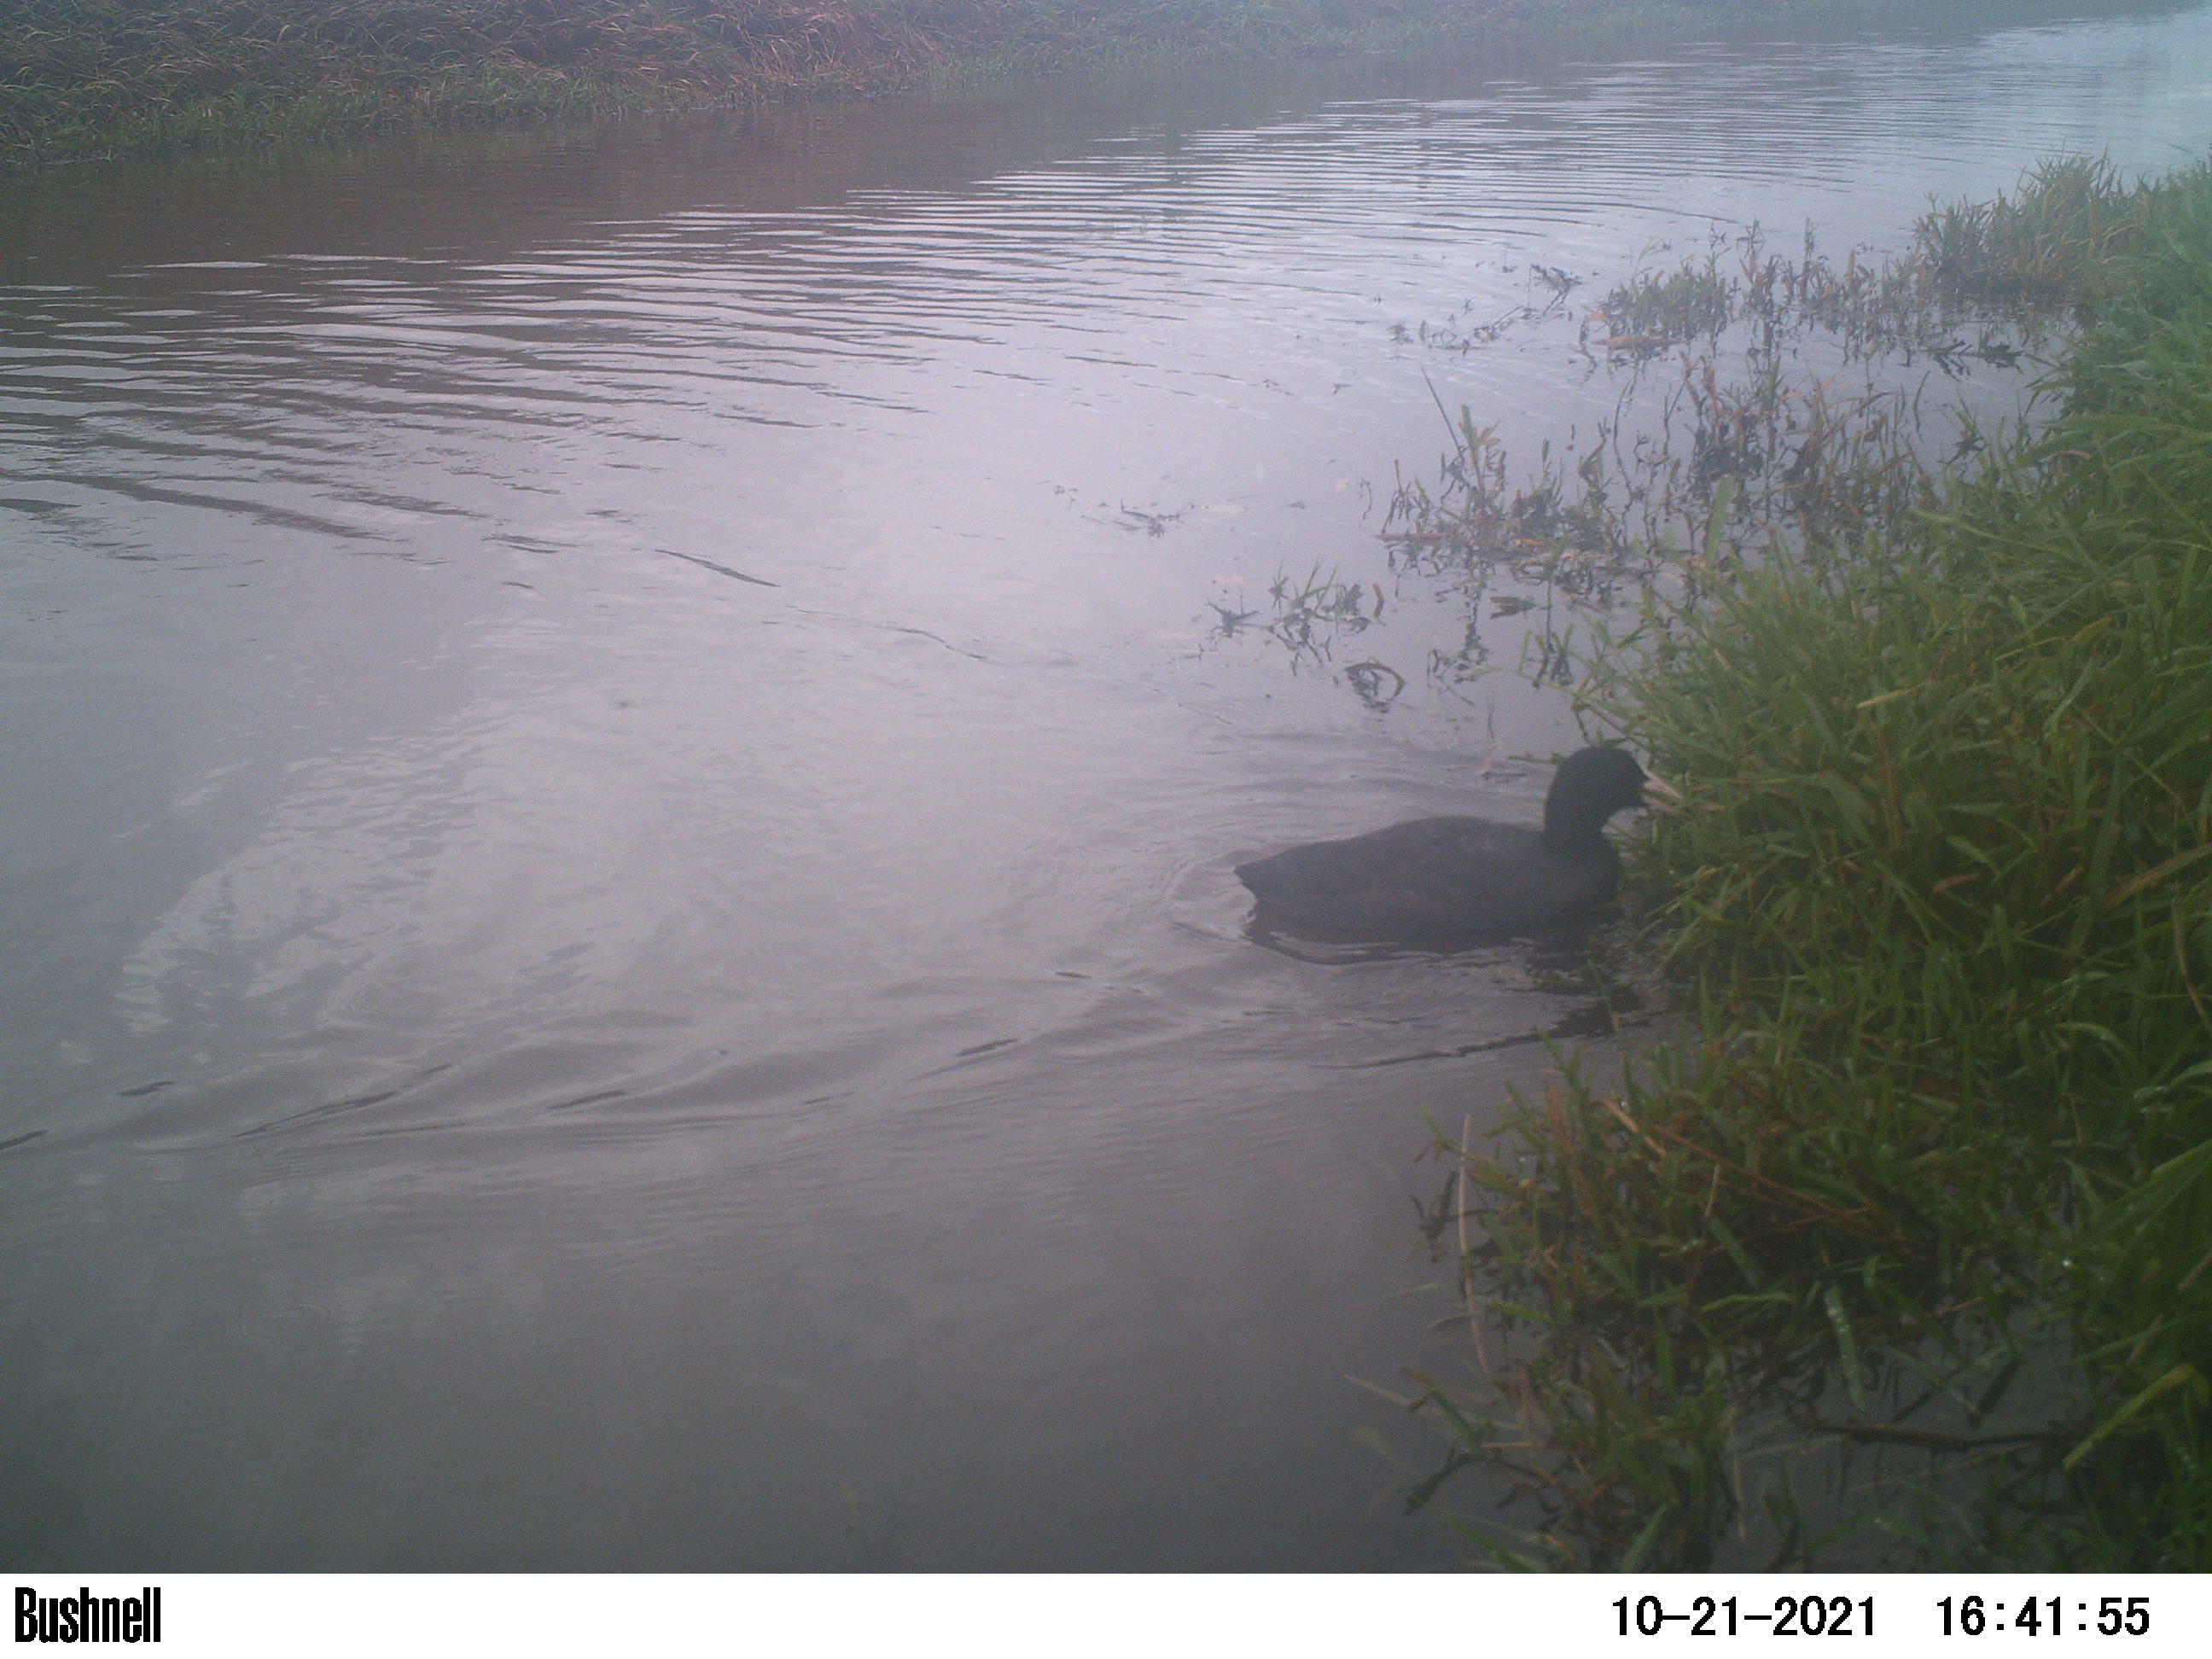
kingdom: Animalia
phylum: Chordata
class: Aves
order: Gruiformes
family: Rallidae
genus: Fulica
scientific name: Fulica atra
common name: Eurasian coot
